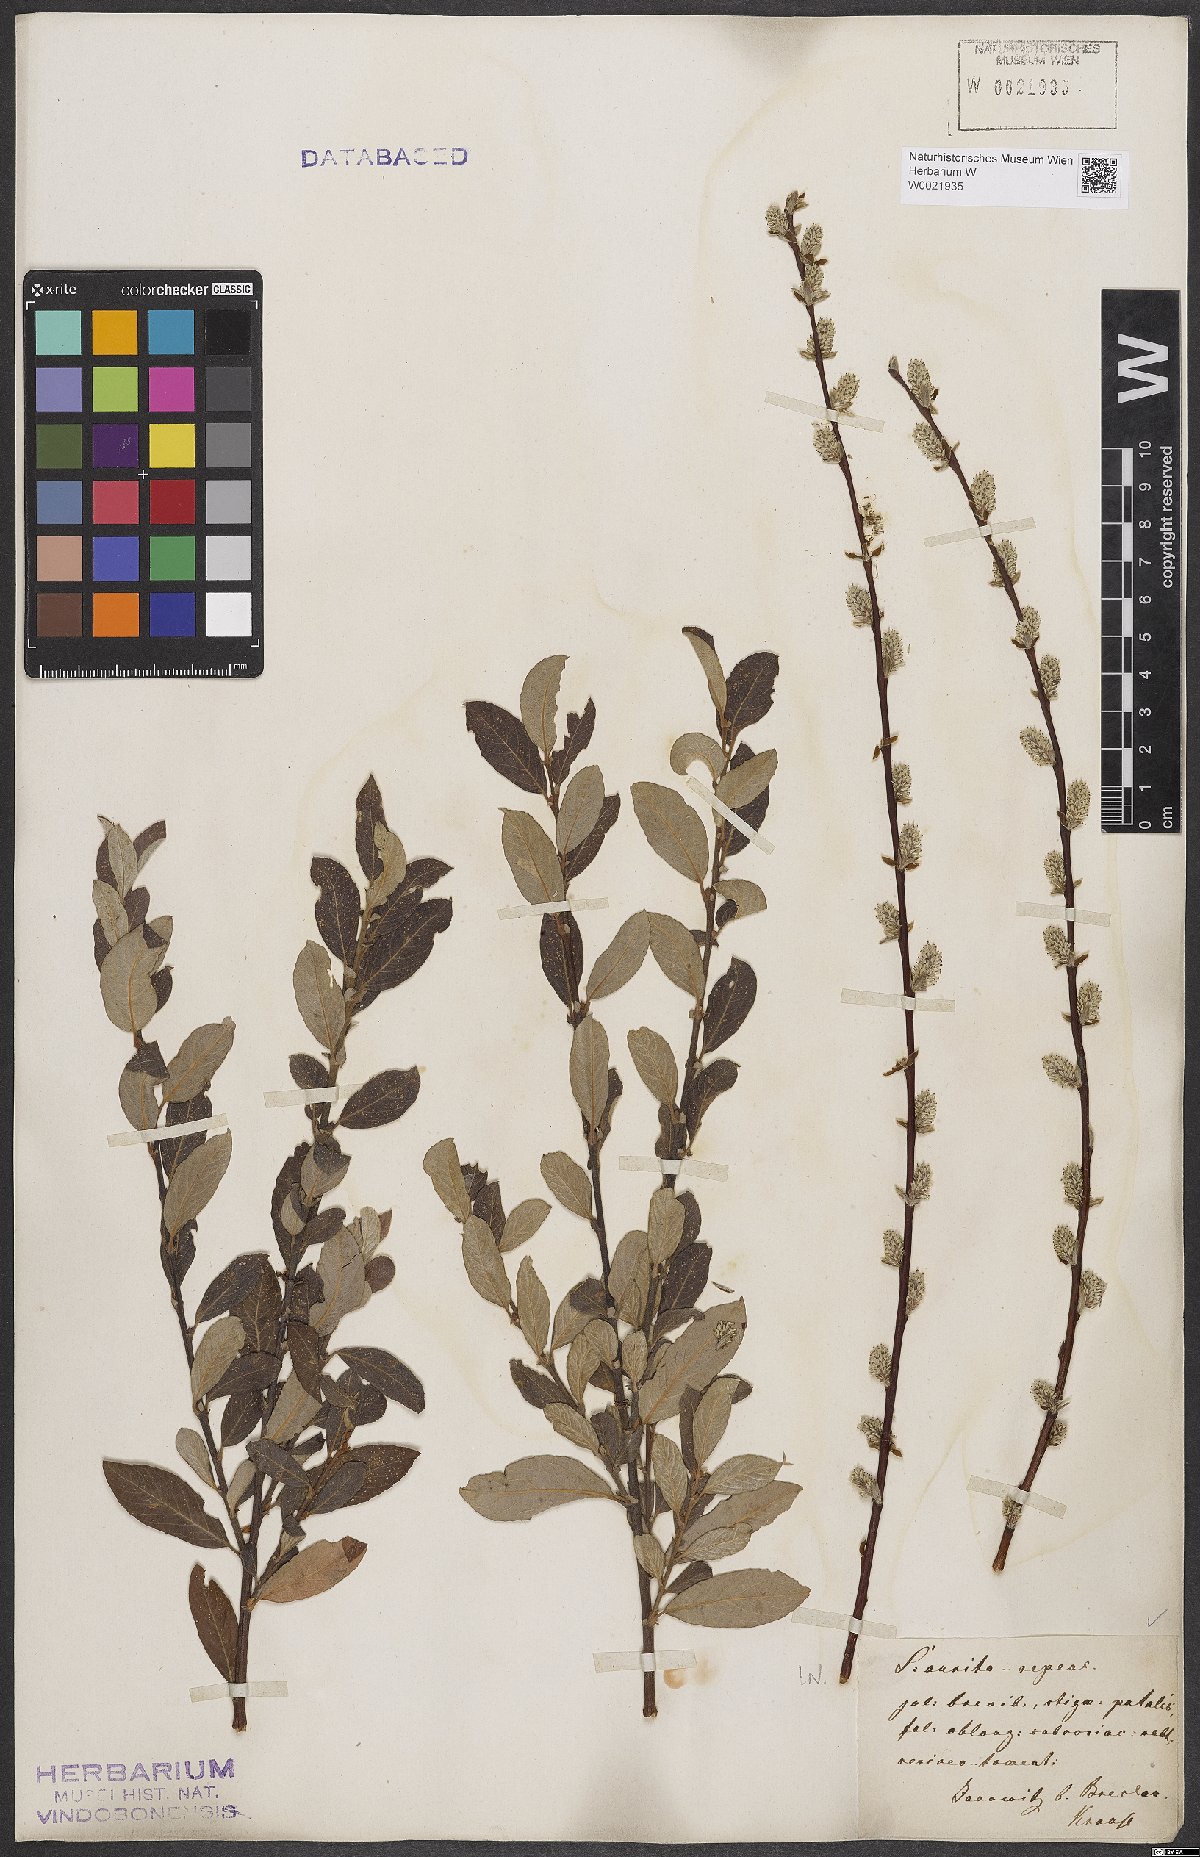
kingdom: Plantae
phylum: Tracheophyta
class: Magnoliopsida
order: Malpighiales
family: Salicaceae
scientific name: Salicaceae
